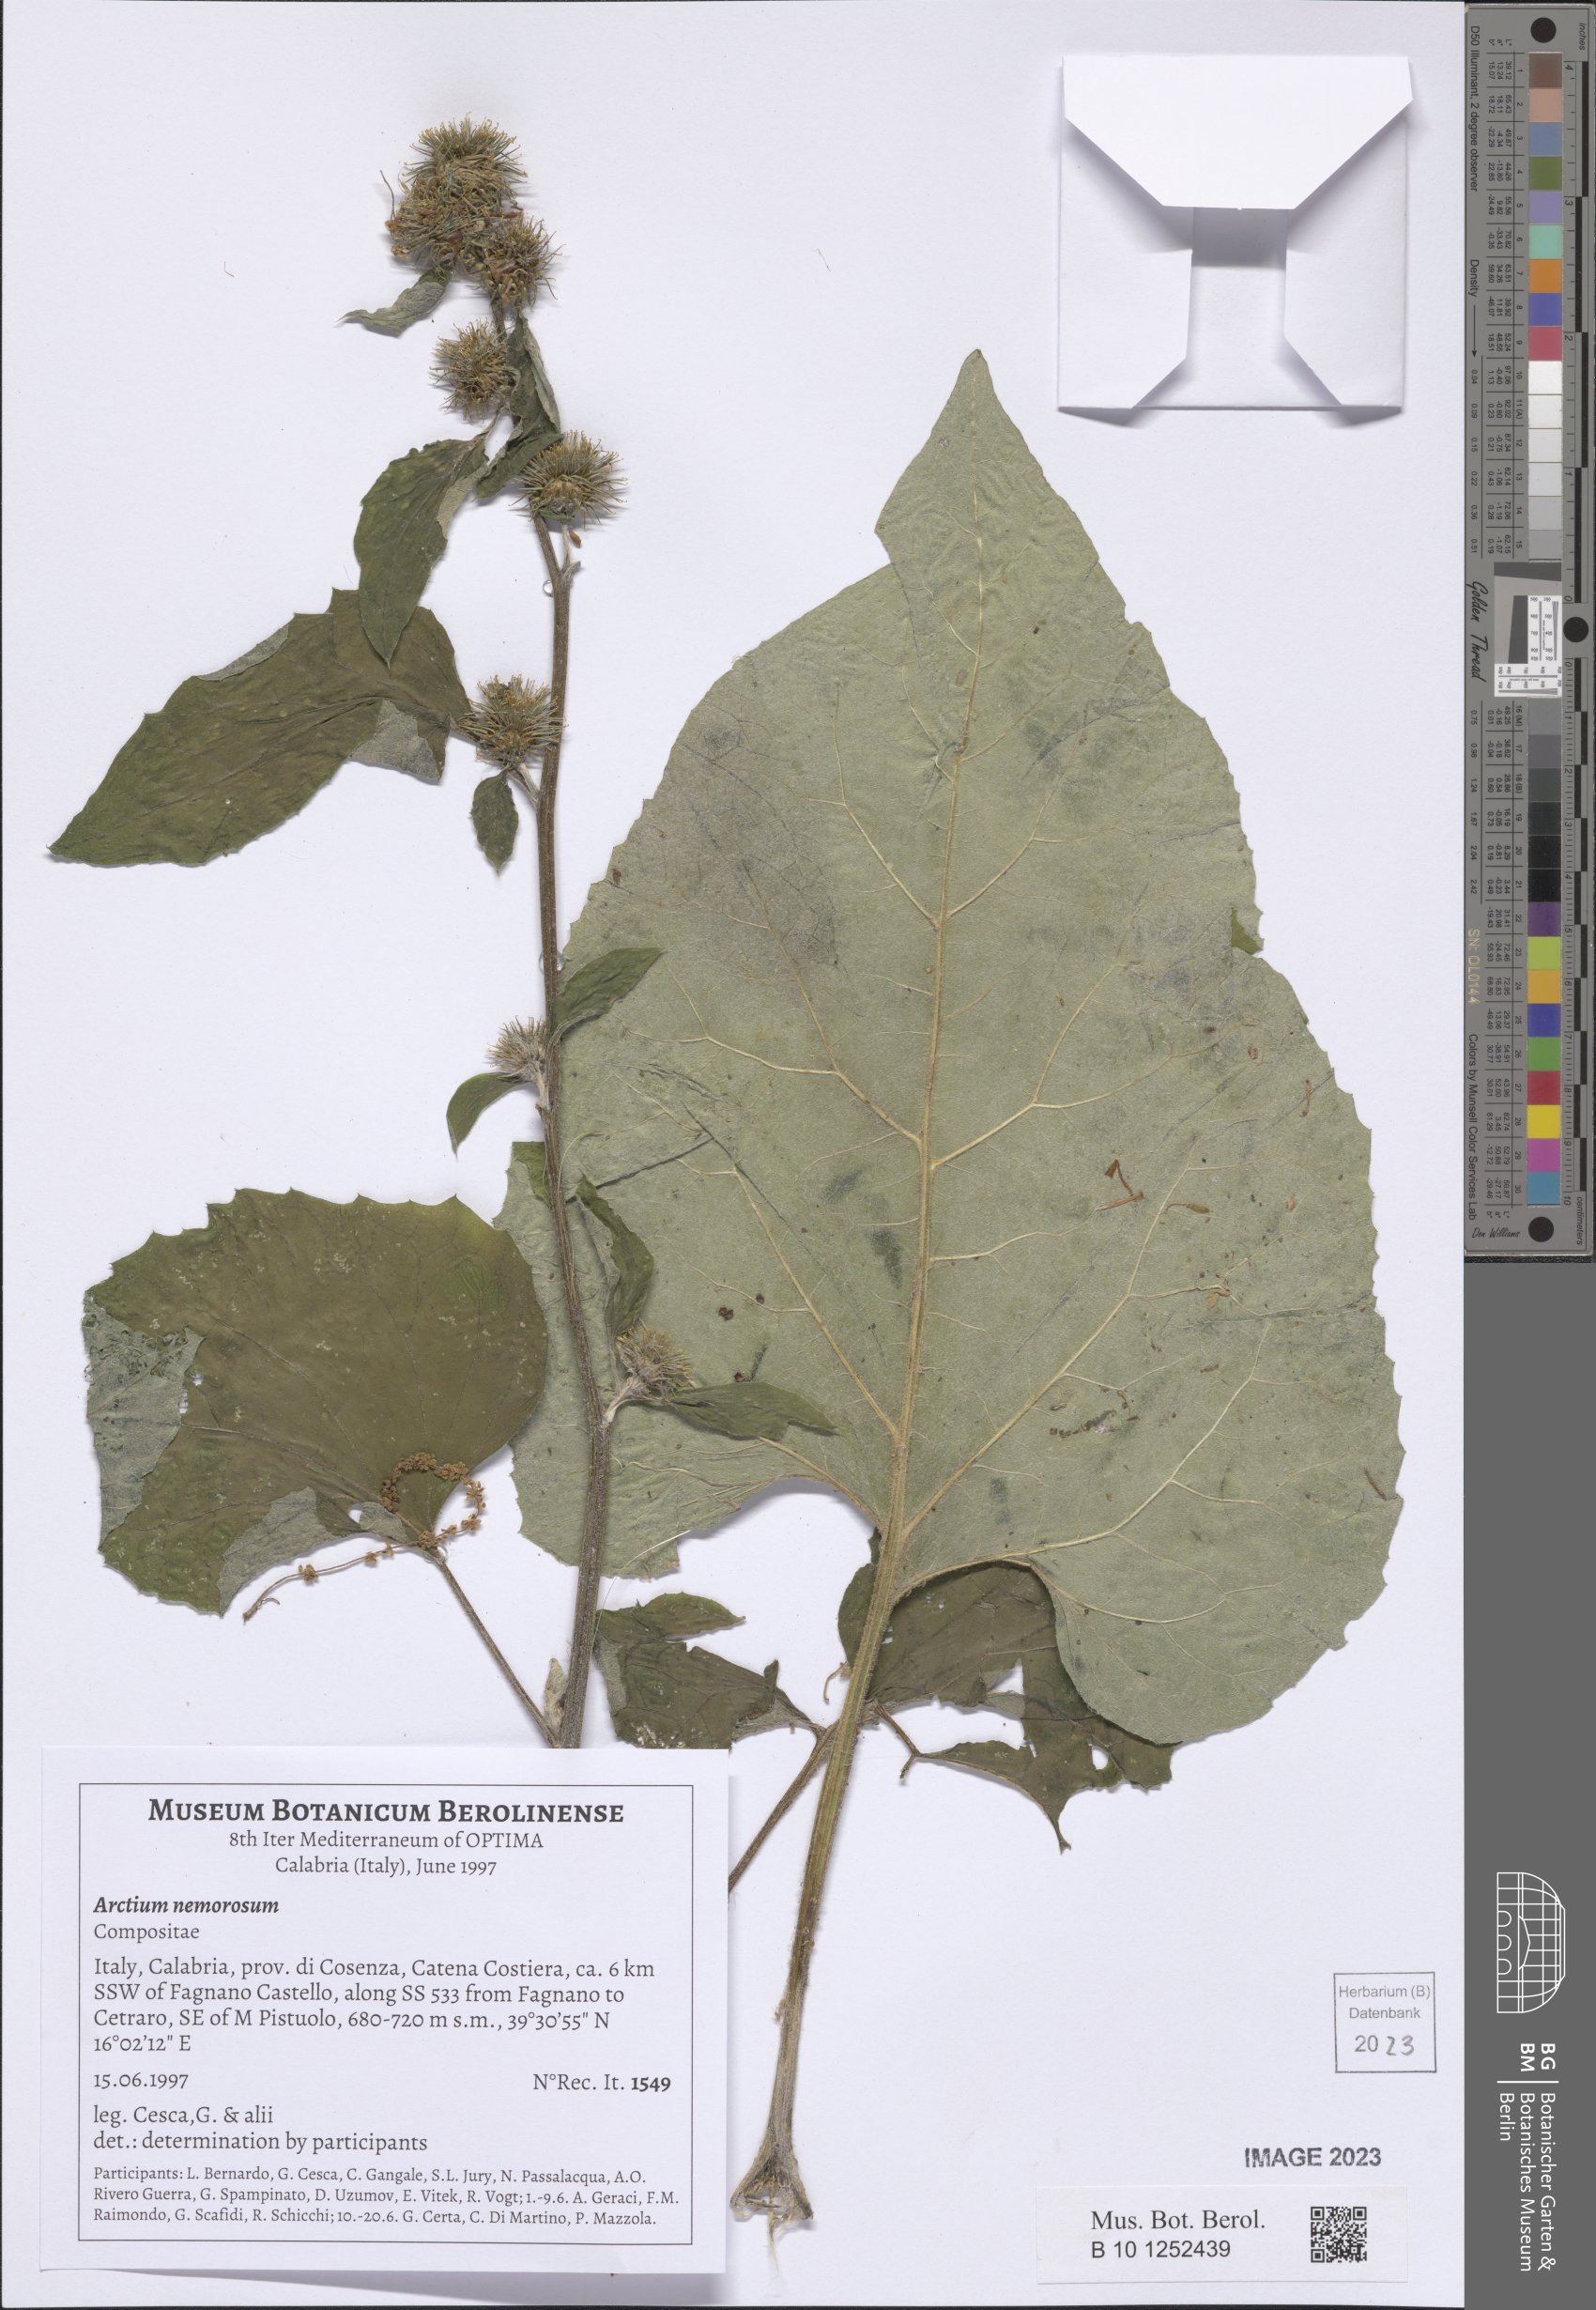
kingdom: Plantae
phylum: Tracheophyta
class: Magnoliopsida
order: Asterales
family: Asteraceae
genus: Arctium
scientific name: Arctium nemorosum
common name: Wood burdock
